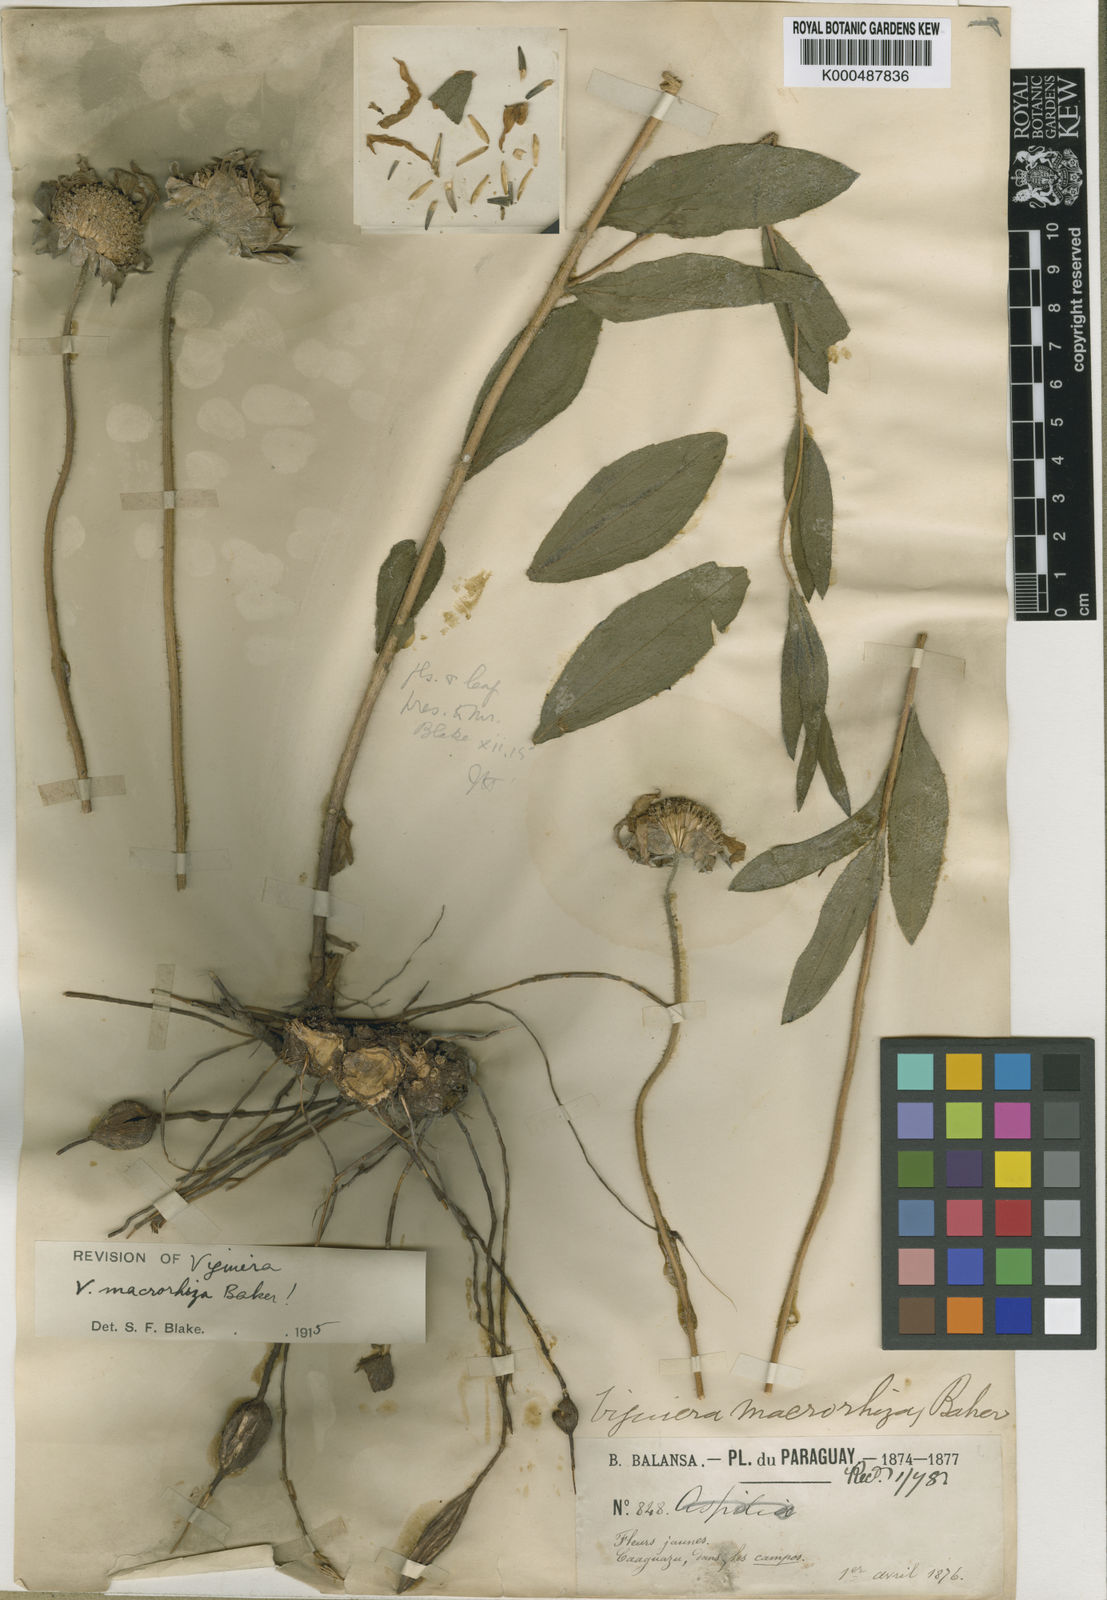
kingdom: Plantae
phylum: Tracheophyta
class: Magnoliopsida
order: Asterales
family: Asteraceae
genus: Aldama
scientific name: Aldama macrorhiza
